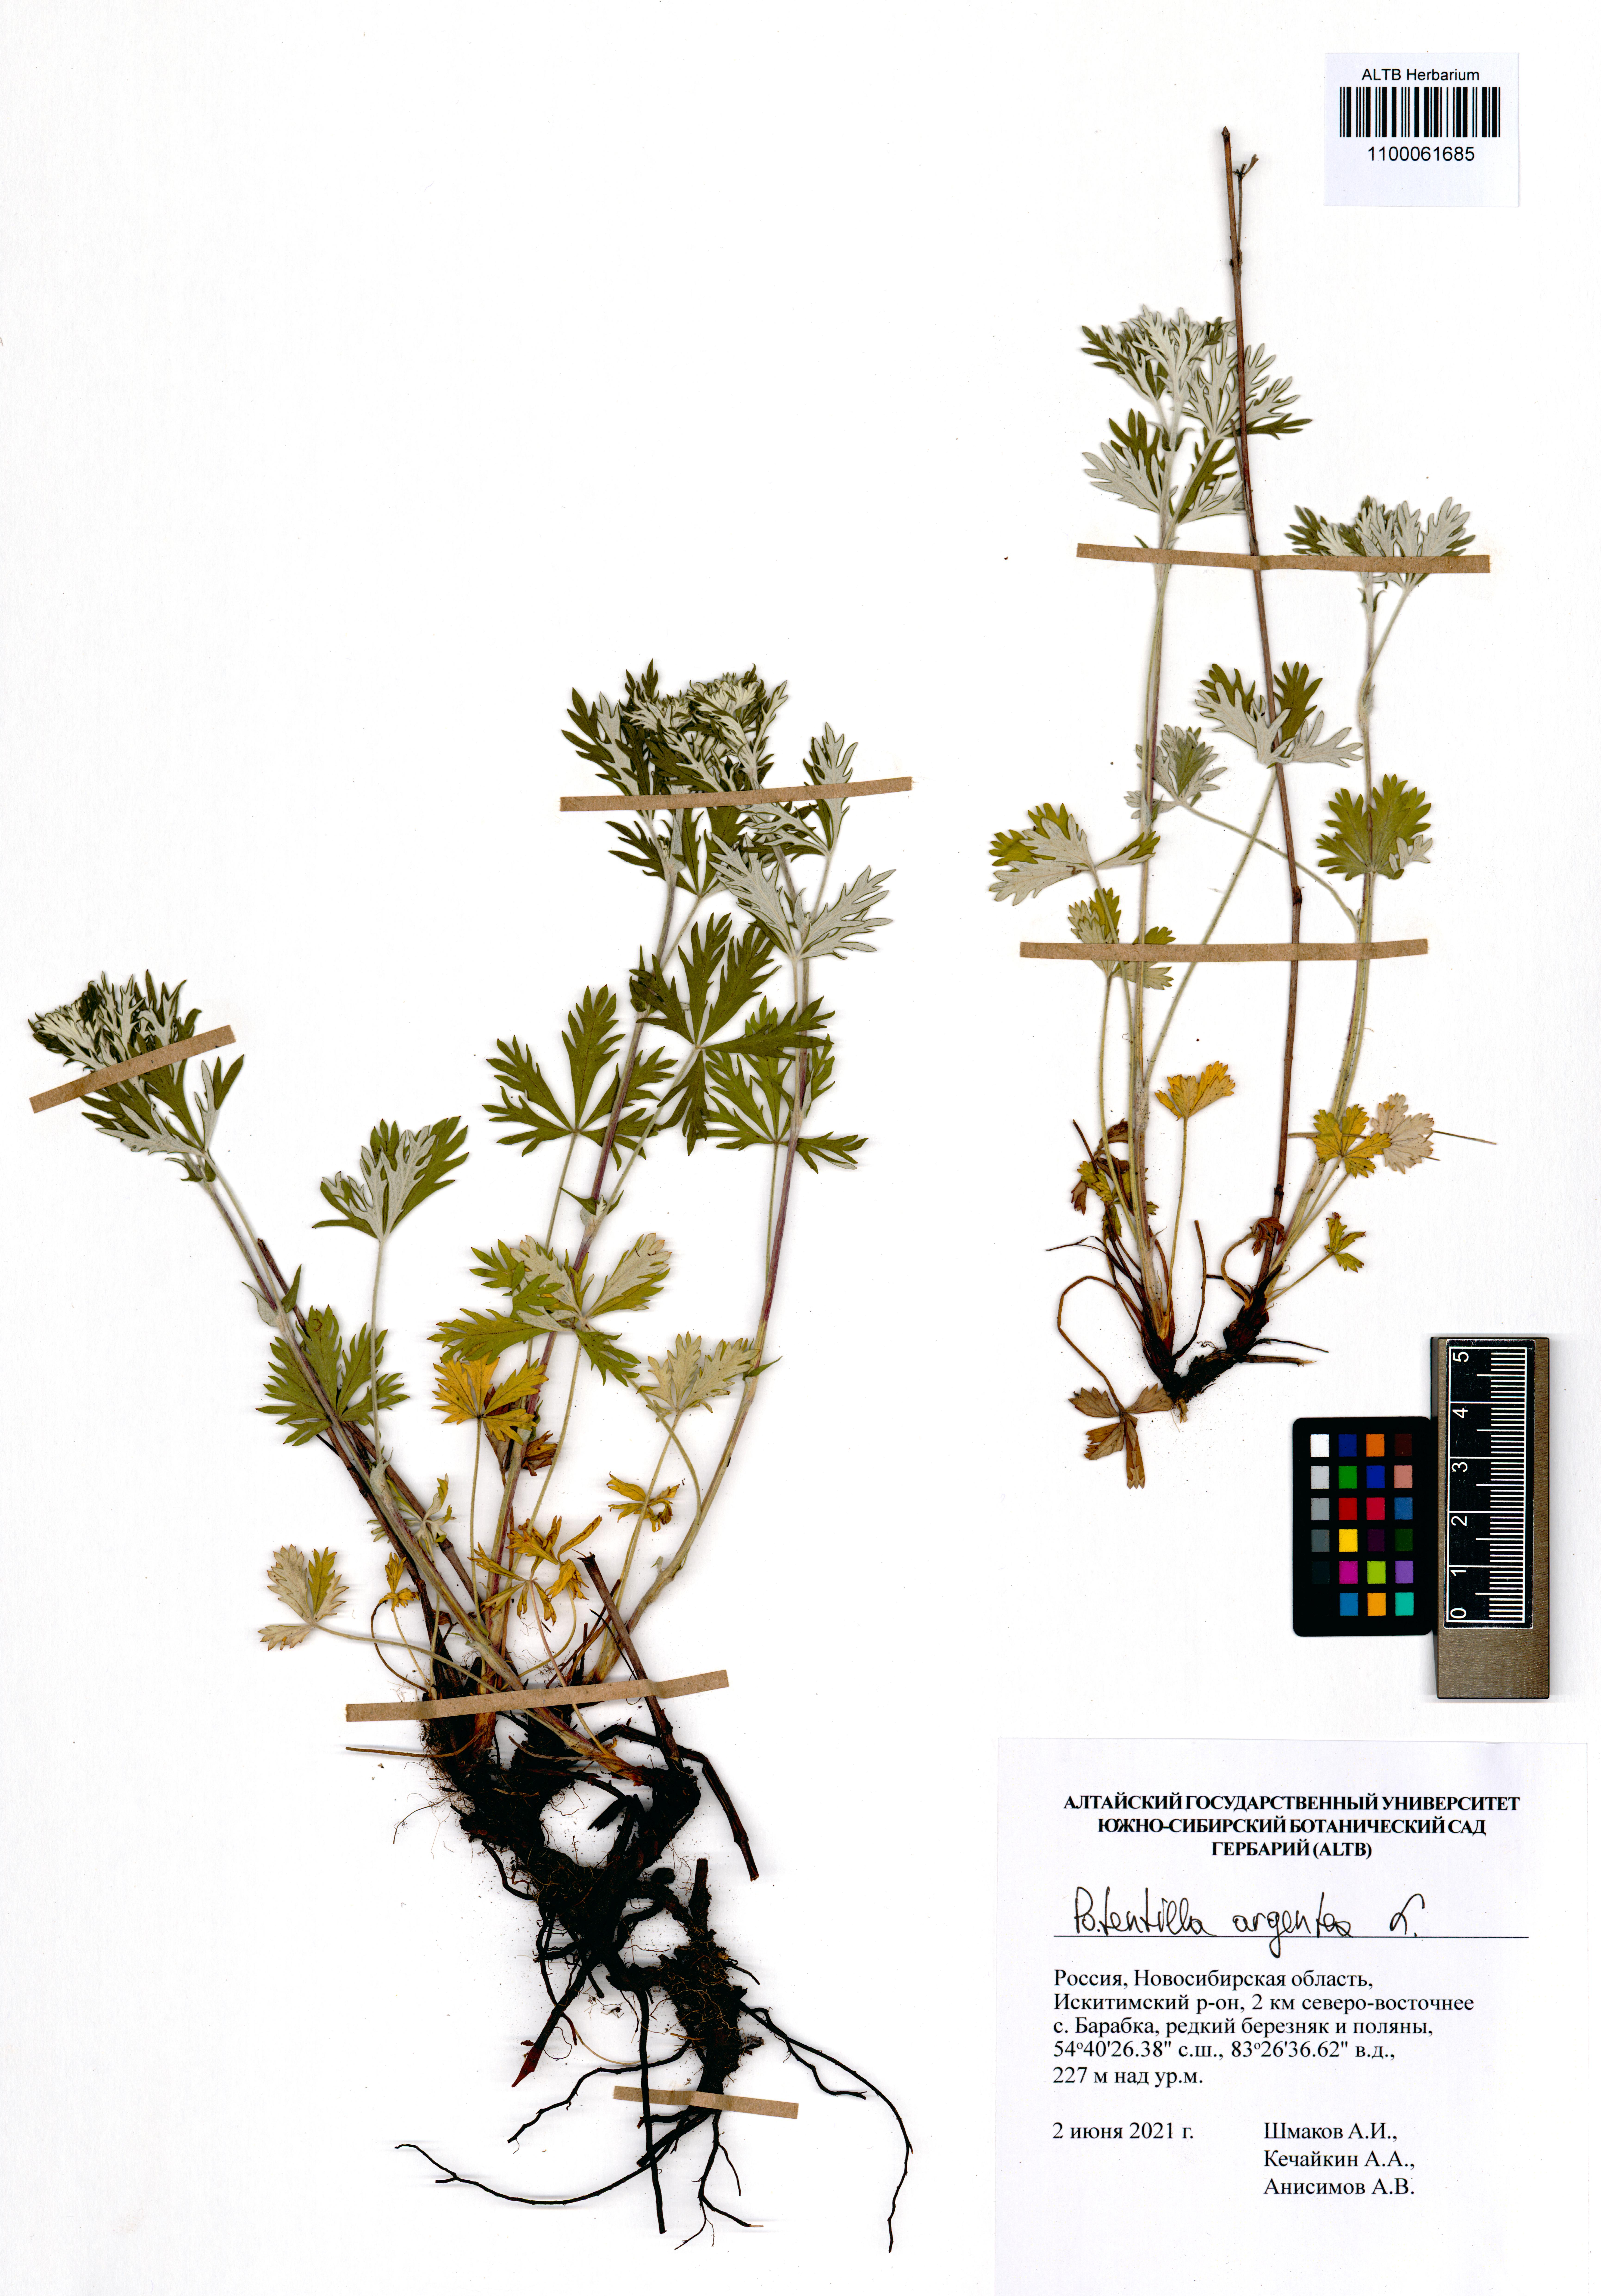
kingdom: Plantae
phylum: Tracheophyta
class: Magnoliopsida
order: Rosales
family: Rosaceae
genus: Potentilla
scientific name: Potentilla argentea
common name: Hoary cinquefoil
